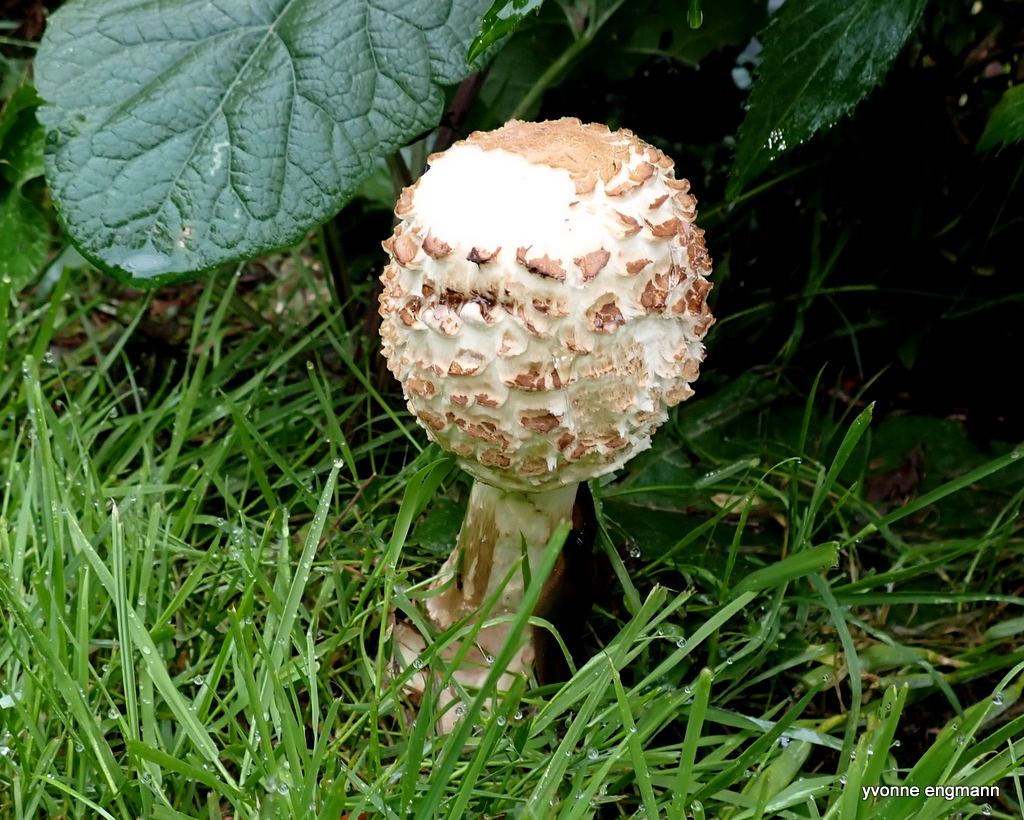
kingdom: Fungi
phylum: Basidiomycota
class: Agaricomycetes
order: Agaricales
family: Agaricaceae
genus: Chlorophyllum
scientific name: Chlorophyllum
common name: rabarberhat
